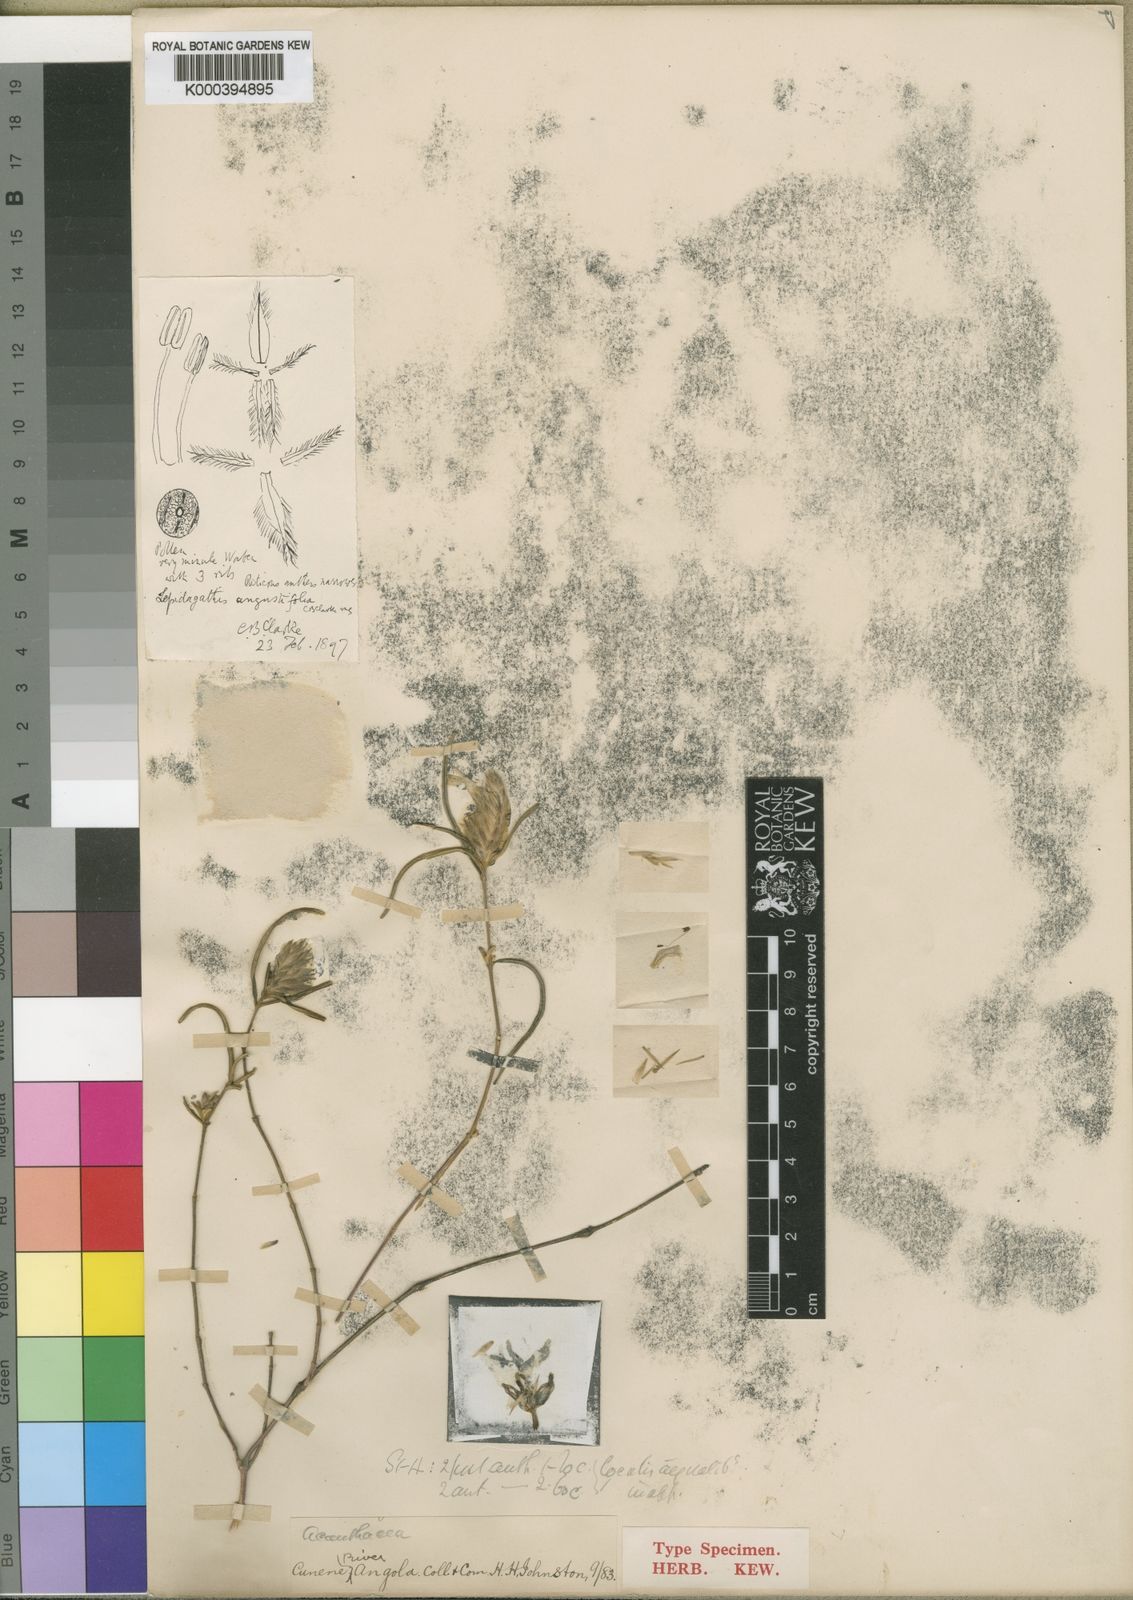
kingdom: Plantae
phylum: Tracheophyta
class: Magnoliopsida
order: Lamiales
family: Acanthaceae
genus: Lepidagathis
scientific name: Lepidagathis angustifolia
